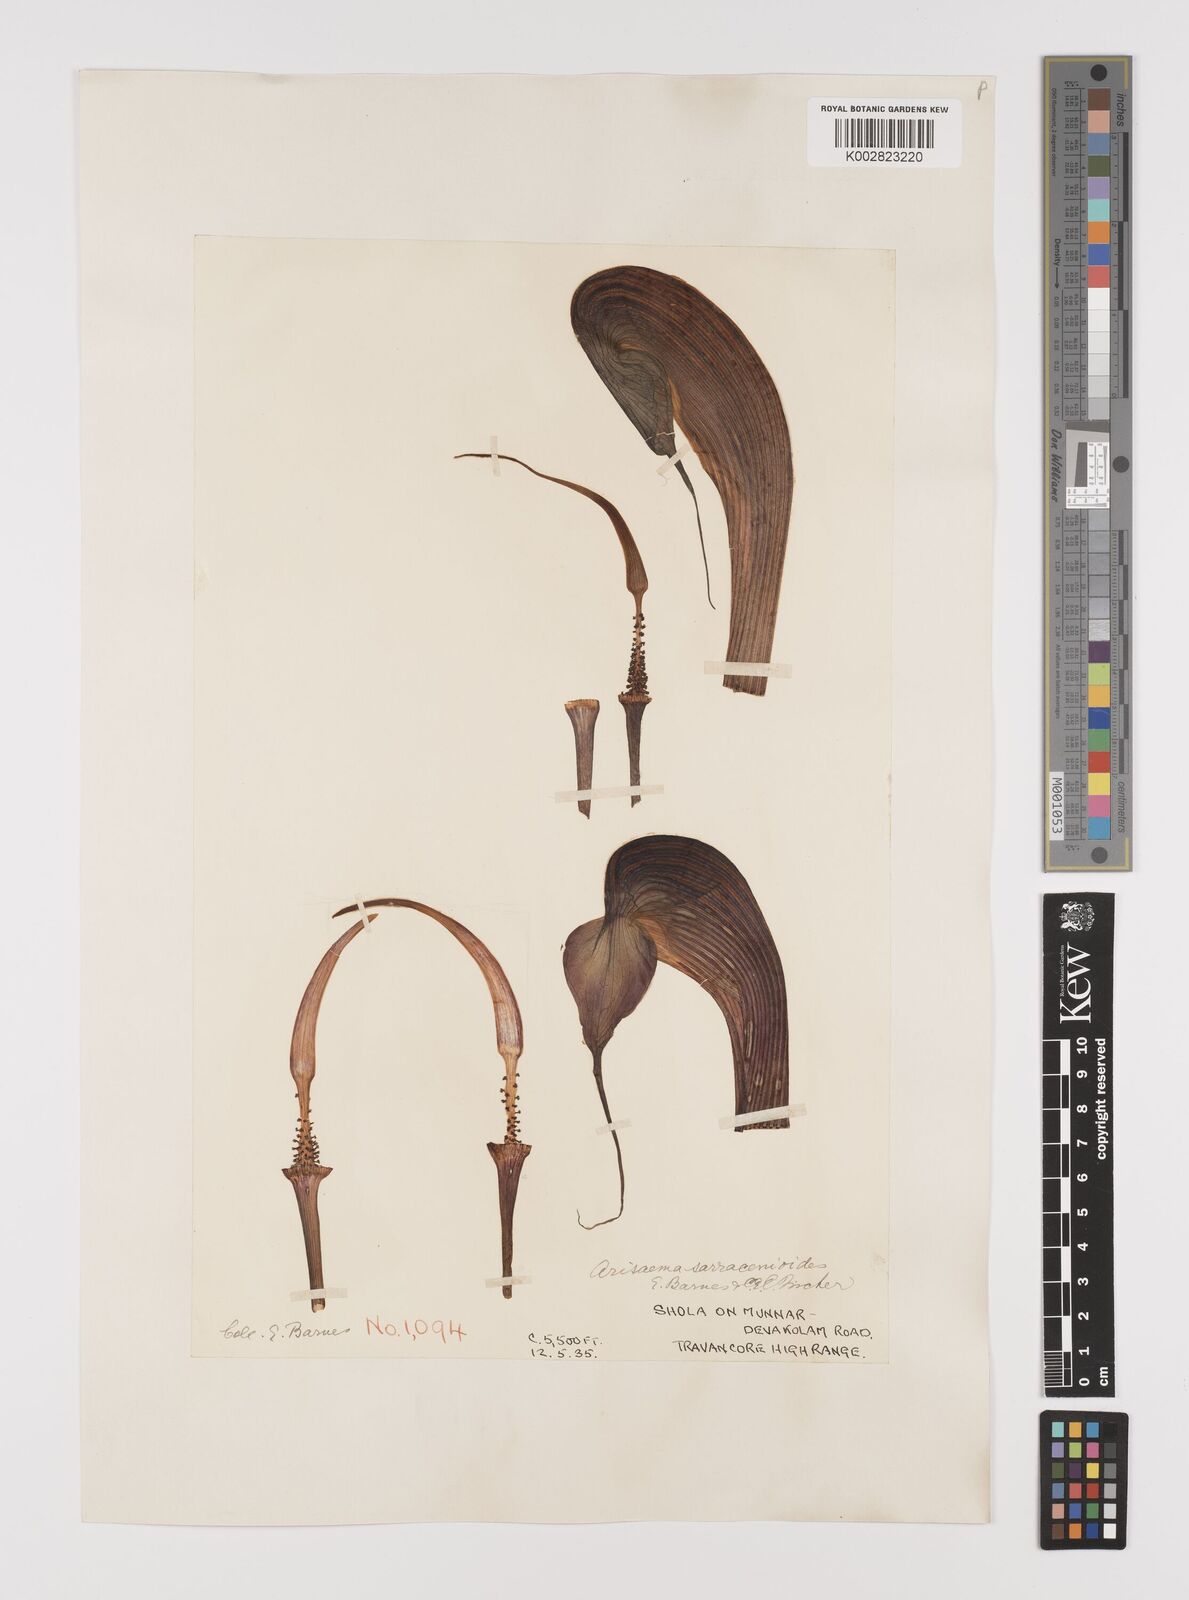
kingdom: Plantae
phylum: Tracheophyta
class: Liliopsida
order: Alismatales
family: Araceae
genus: Arisaema
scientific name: Arisaema sarracenioides
